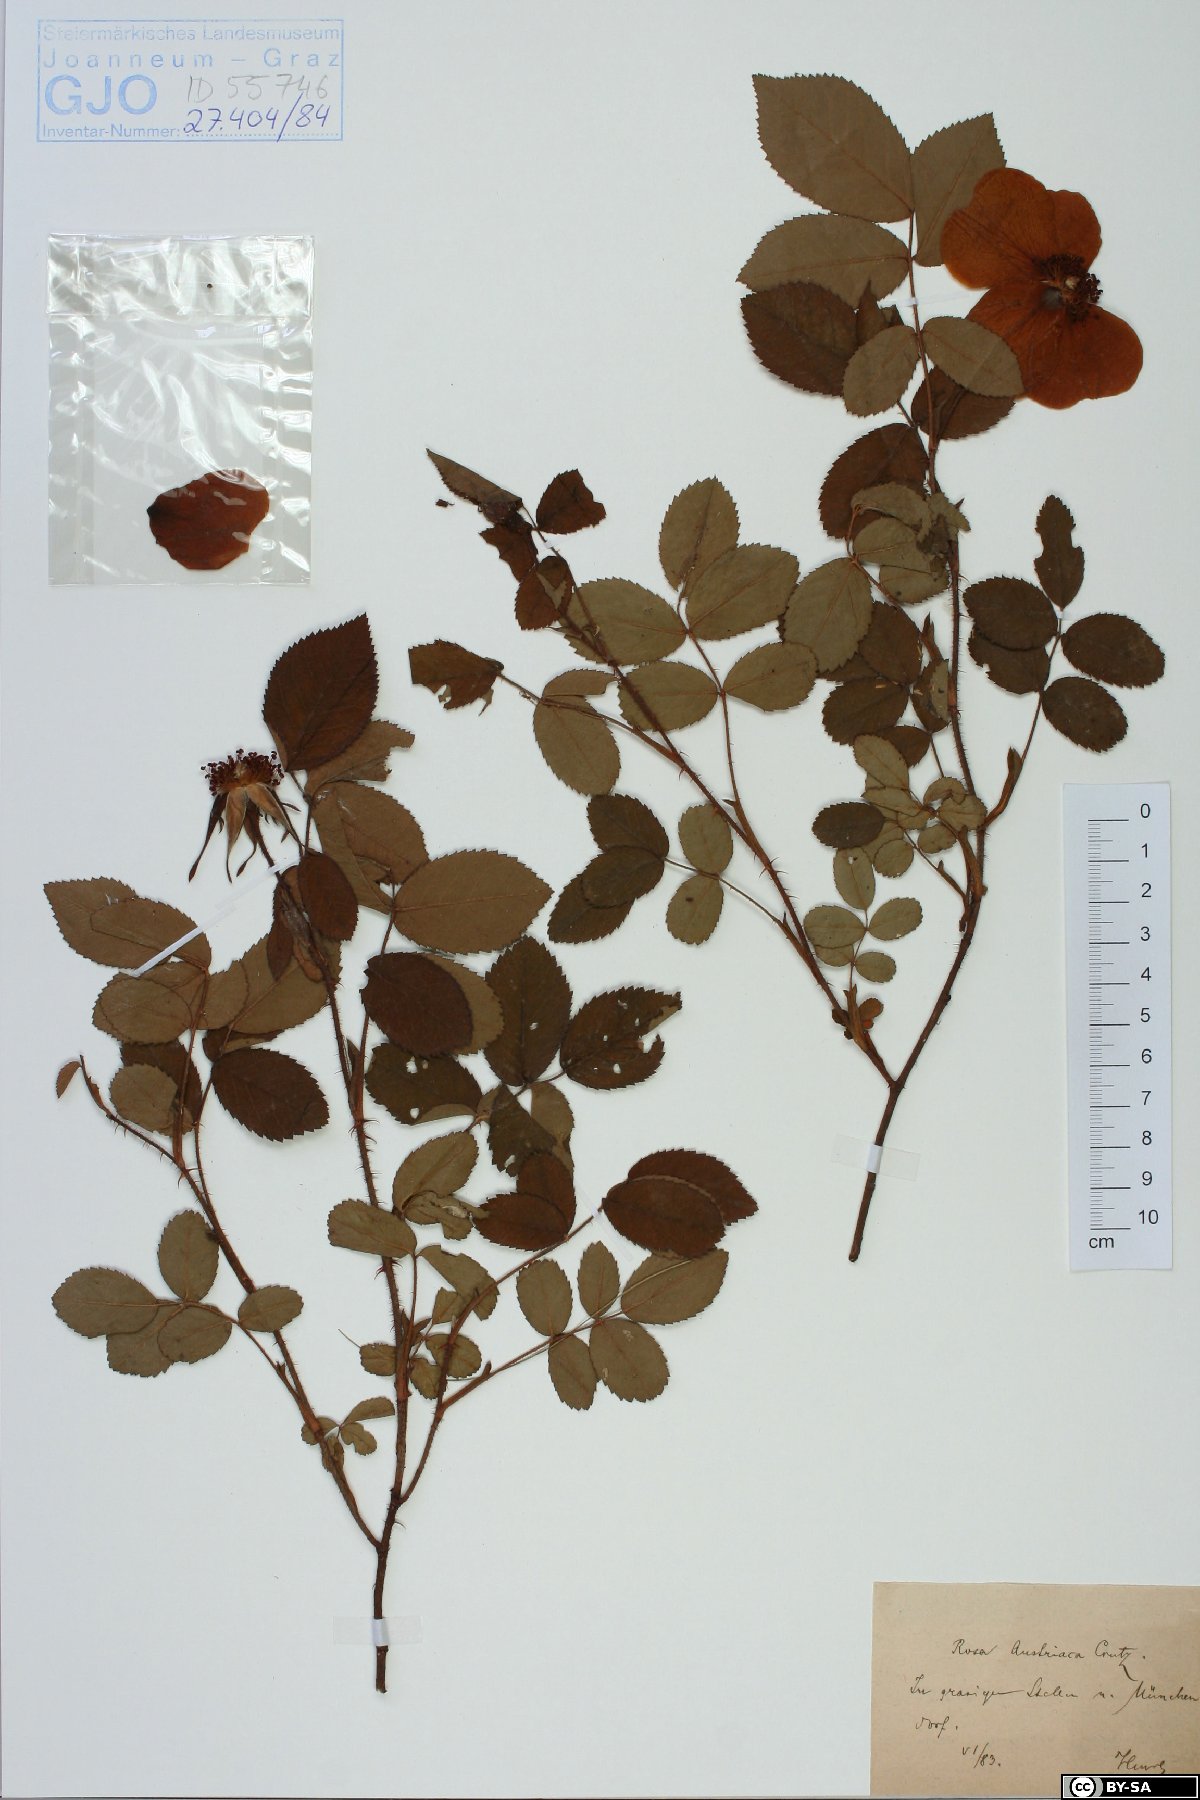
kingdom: Plantae
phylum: Tracheophyta
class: Magnoliopsida
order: Rosales
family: Rosaceae
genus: Rosa
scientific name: Rosa gallica
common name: French rose
